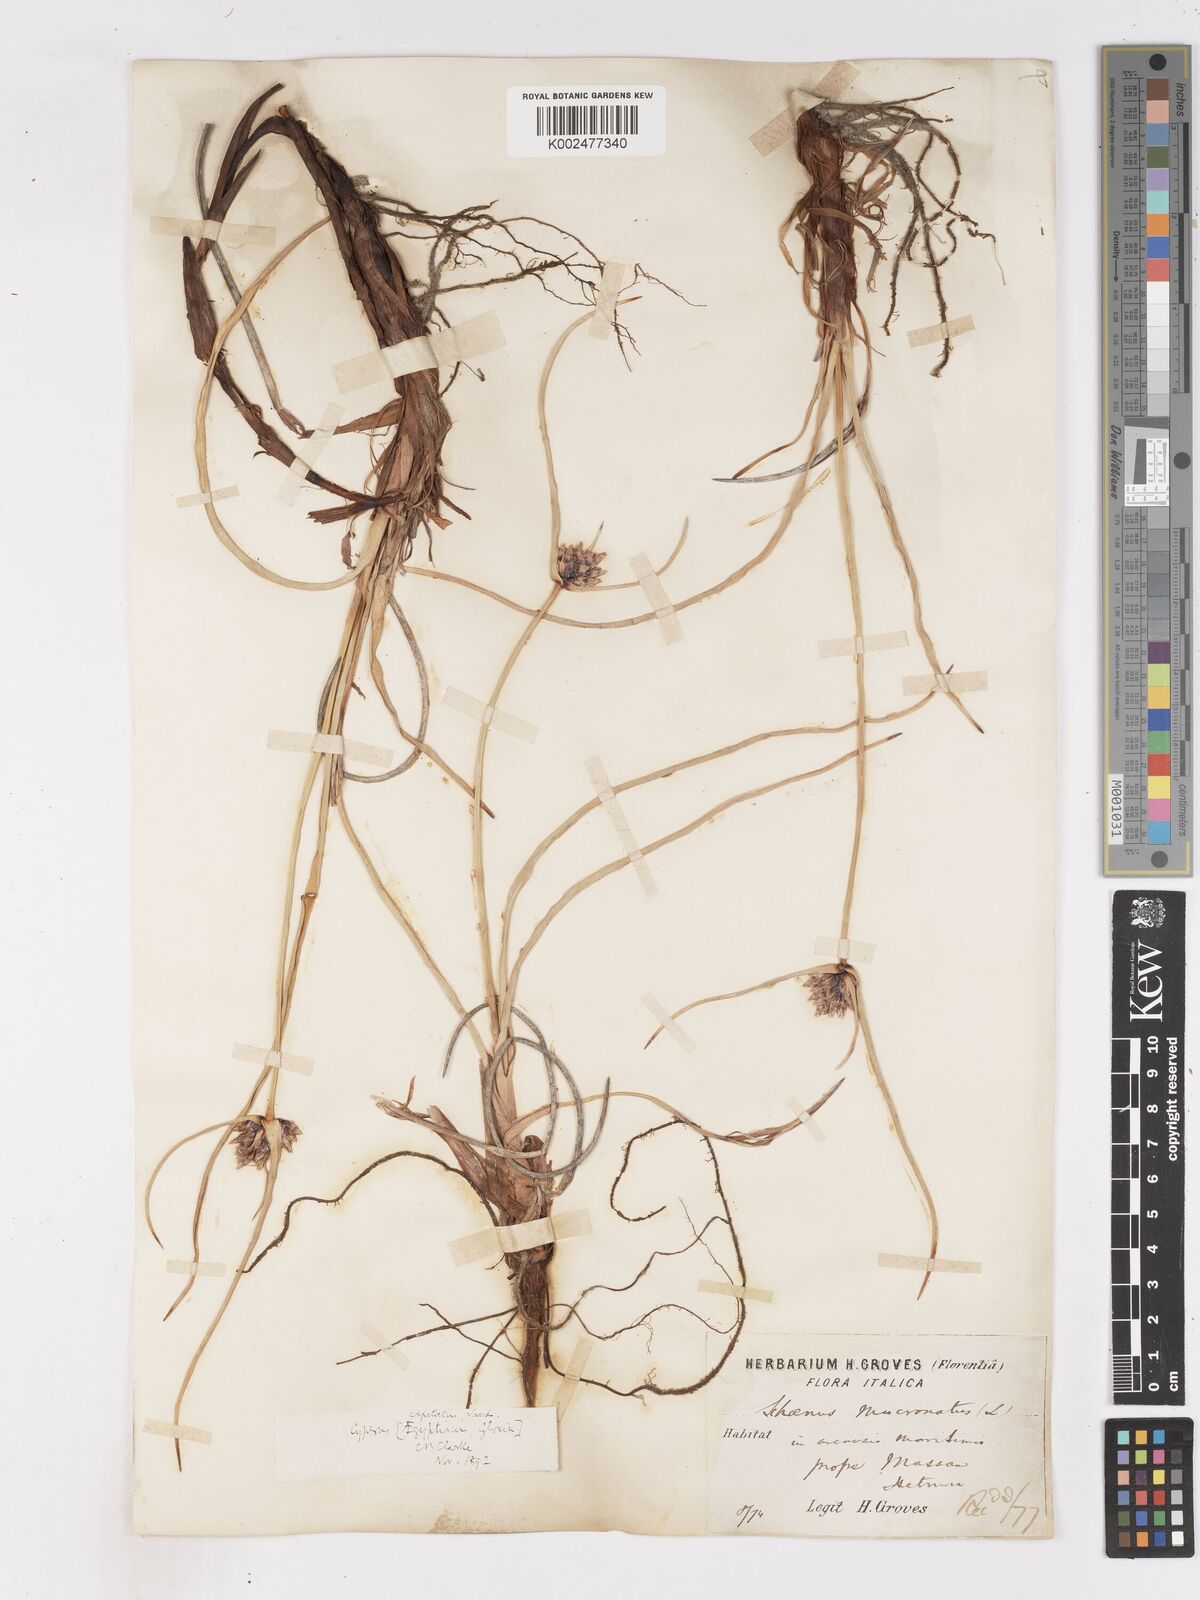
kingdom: Plantae
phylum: Tracheophyta
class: Liliopsida
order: Poales
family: Cyperaceae
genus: Cyperus
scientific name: Cyperus capitatus
